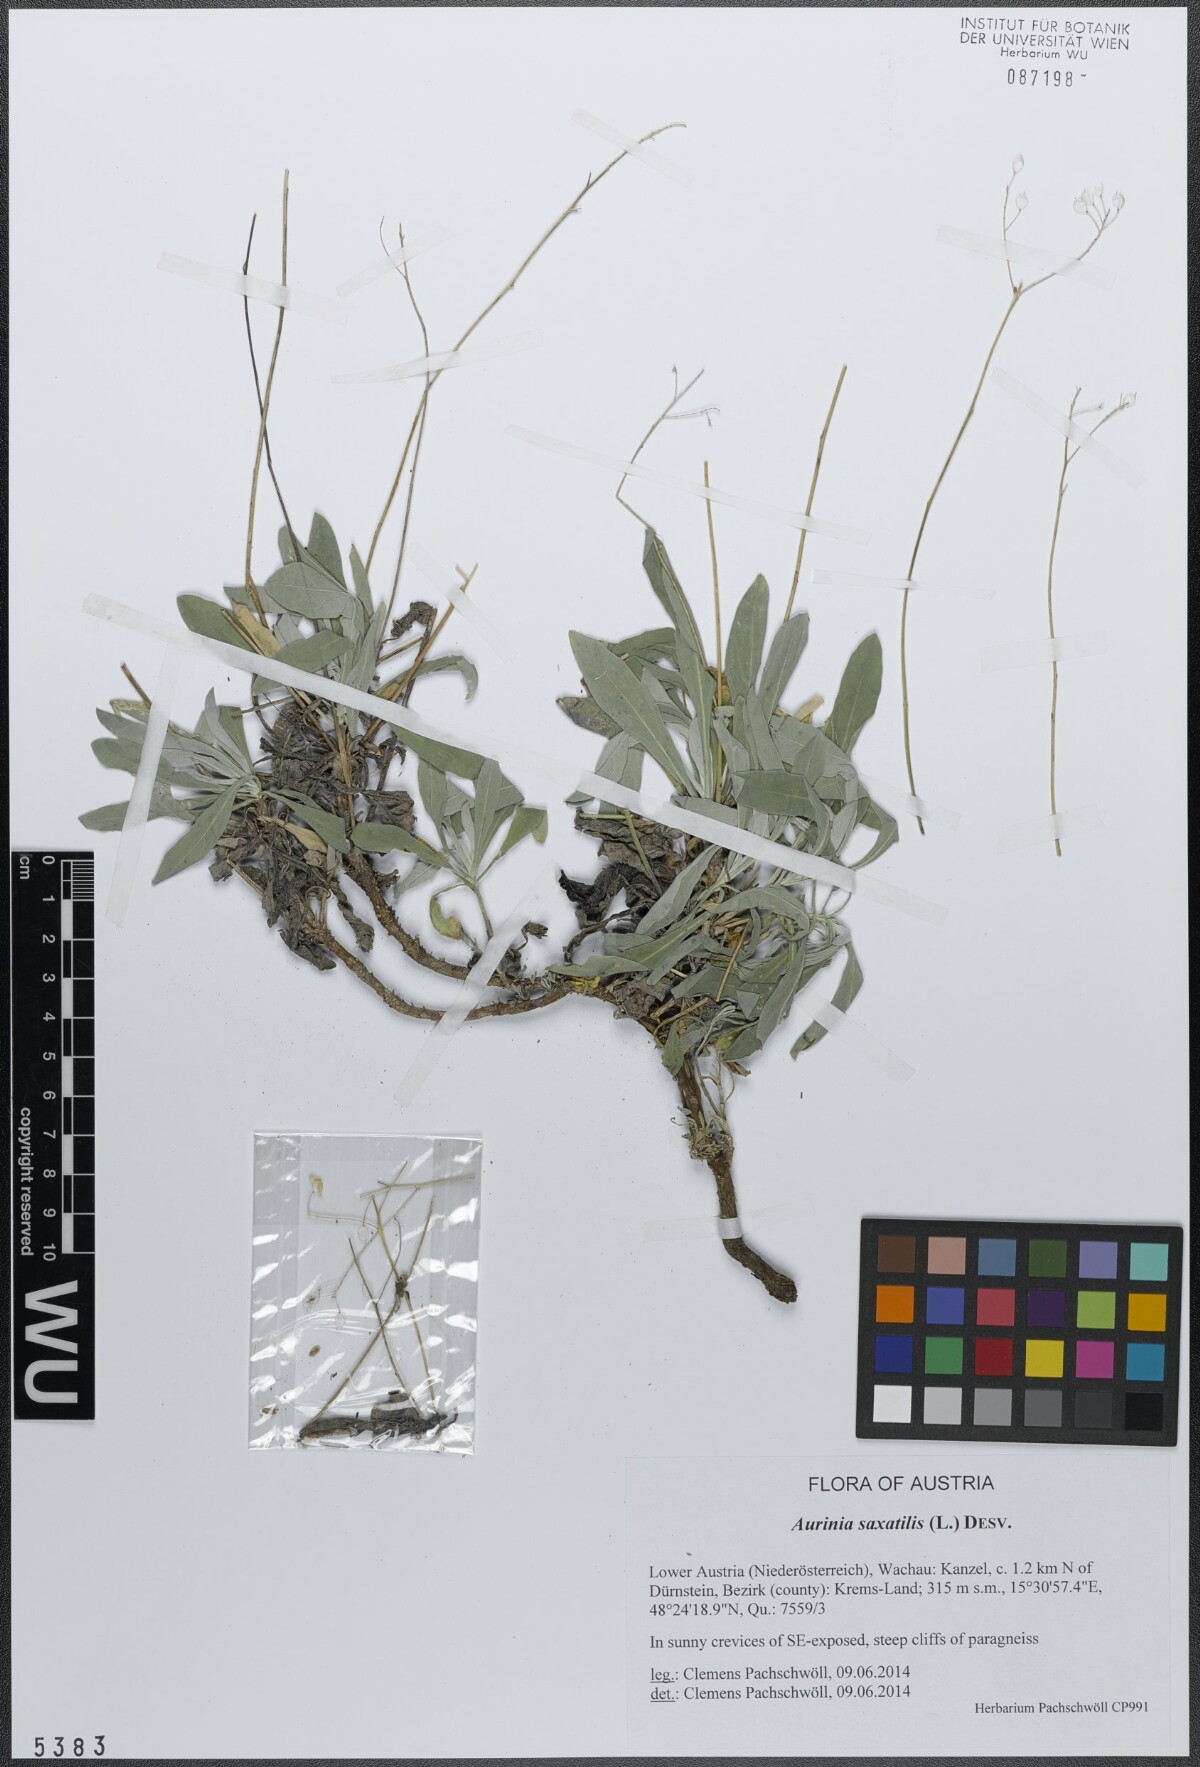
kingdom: Plantae
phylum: Tracheophyta
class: Magnoliopsida
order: Brassicales
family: Brassicaceae
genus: Aurinia
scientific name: Aurinia saxatilis
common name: Golden-tuft alyssum
